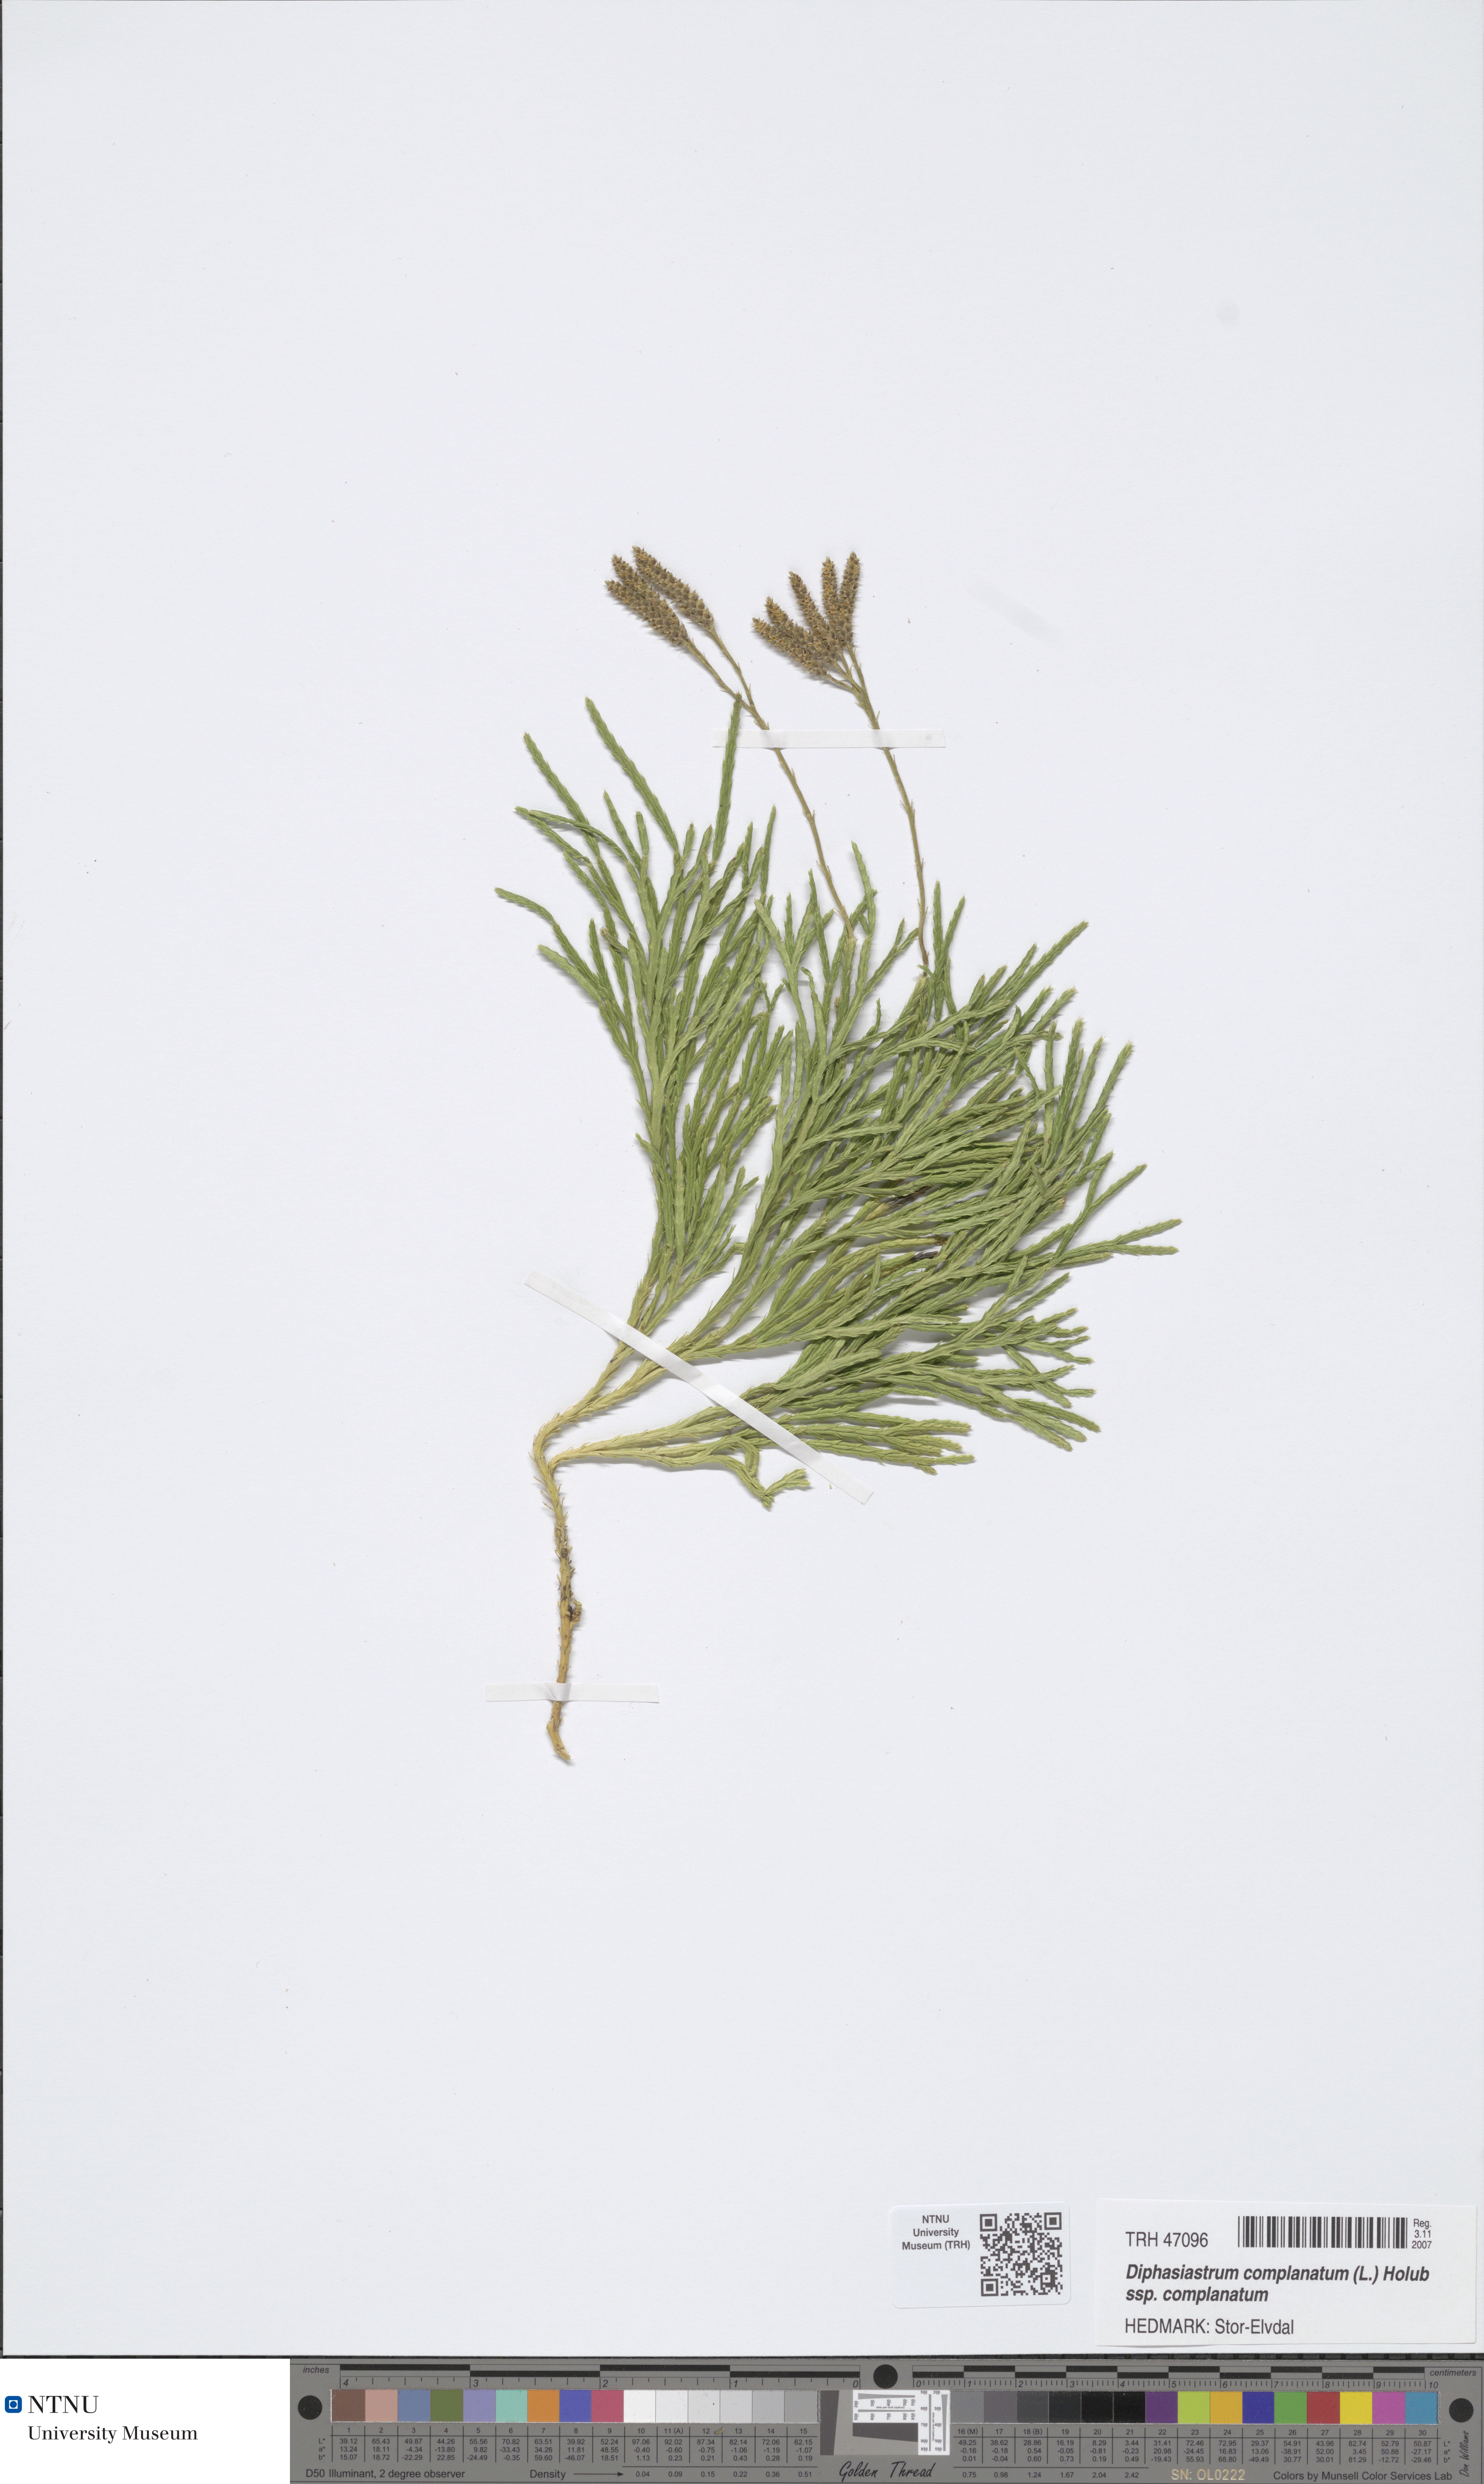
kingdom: Plantae
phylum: Tracheophyta
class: Lycopodiopsida
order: Lycopodiales
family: Lycopodiaceae
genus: Diphasiastrum
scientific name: Diphasiastrum complanatum
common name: Northern running-pine
